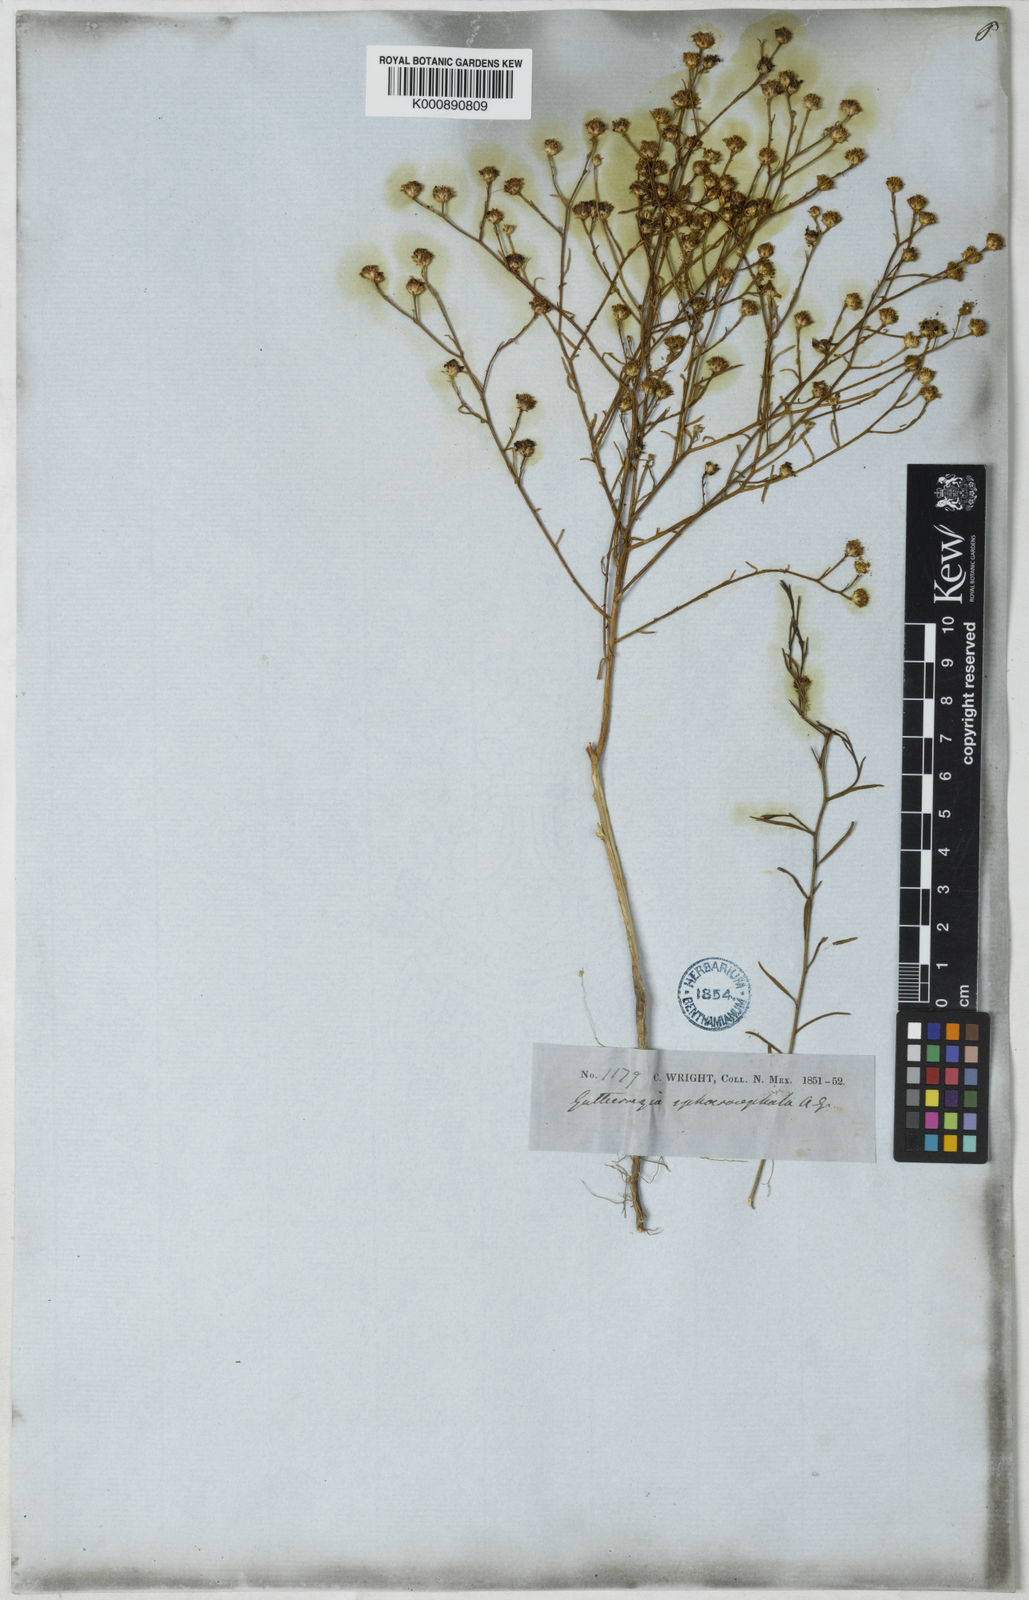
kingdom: Plantae
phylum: Tracheophyta
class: Magnoliopsida
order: Asterales
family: Asteraceae
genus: Gutierrezia
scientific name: Gutierrezia sphaerocephala
